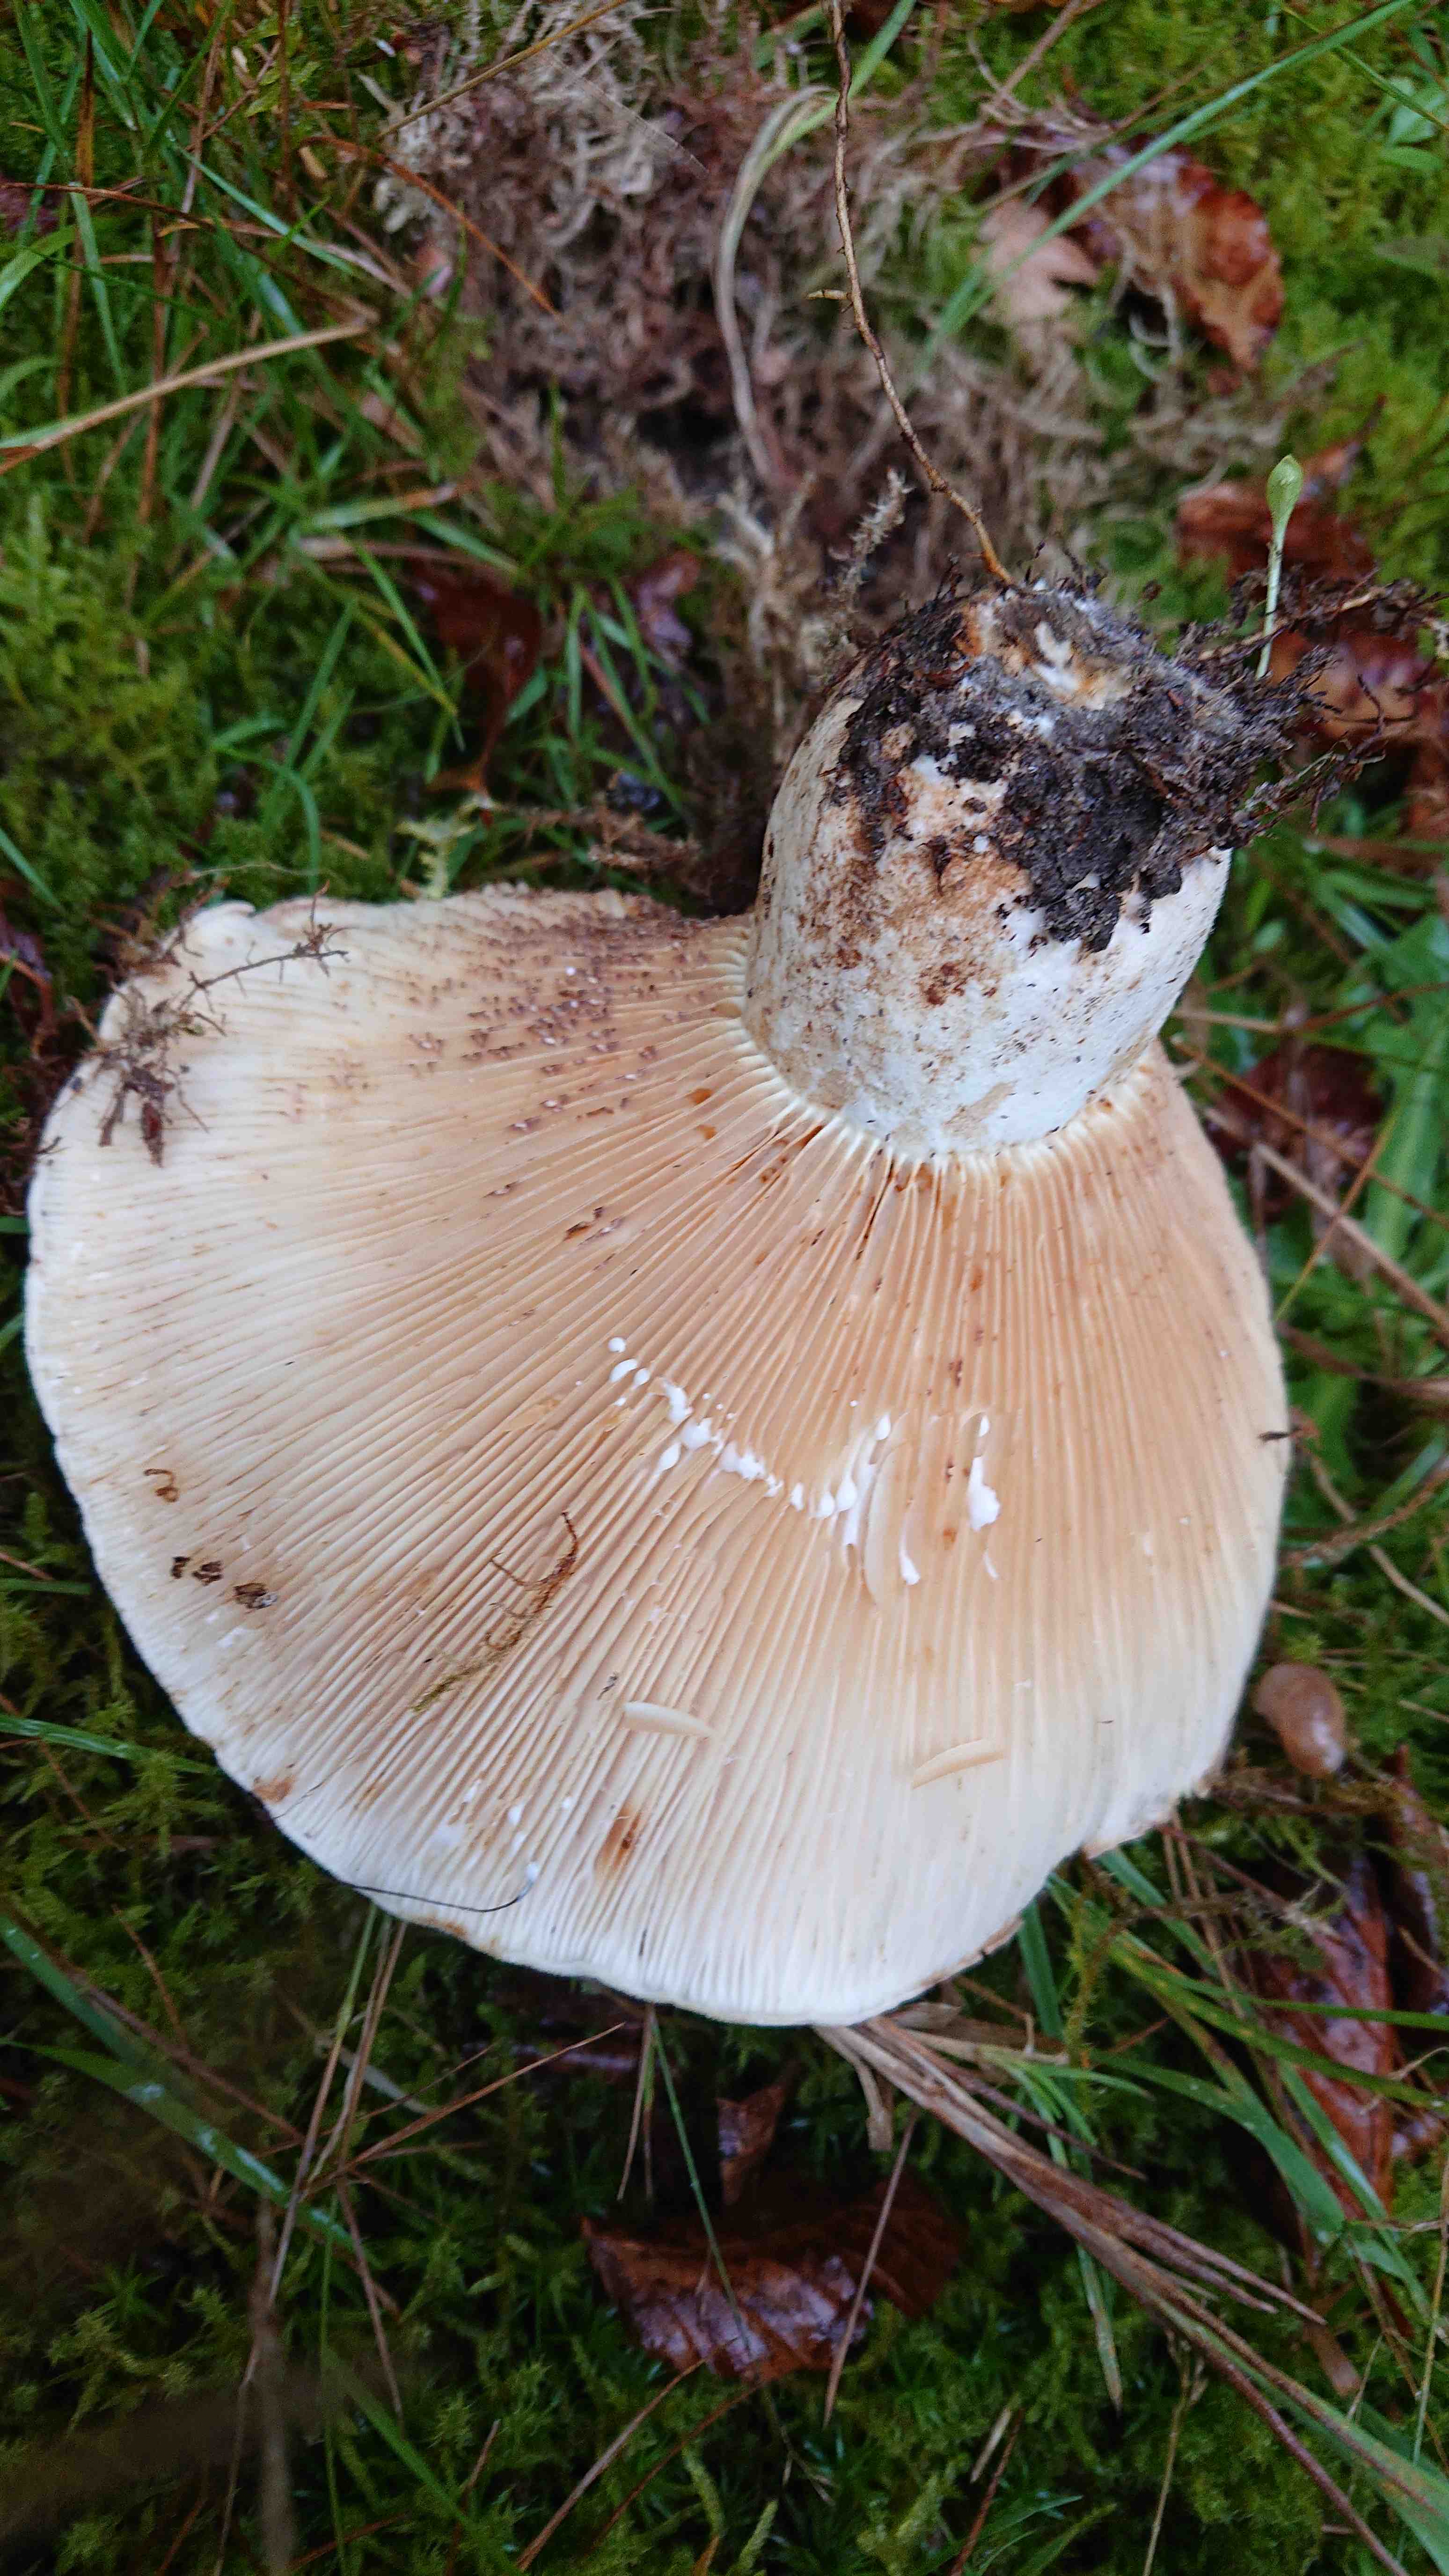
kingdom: Fungi
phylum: Basidiomycota
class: Agaricomycetes
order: Russulales
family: Russulaceae
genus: Lactifluus
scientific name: Lactifluus
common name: mælkehat
